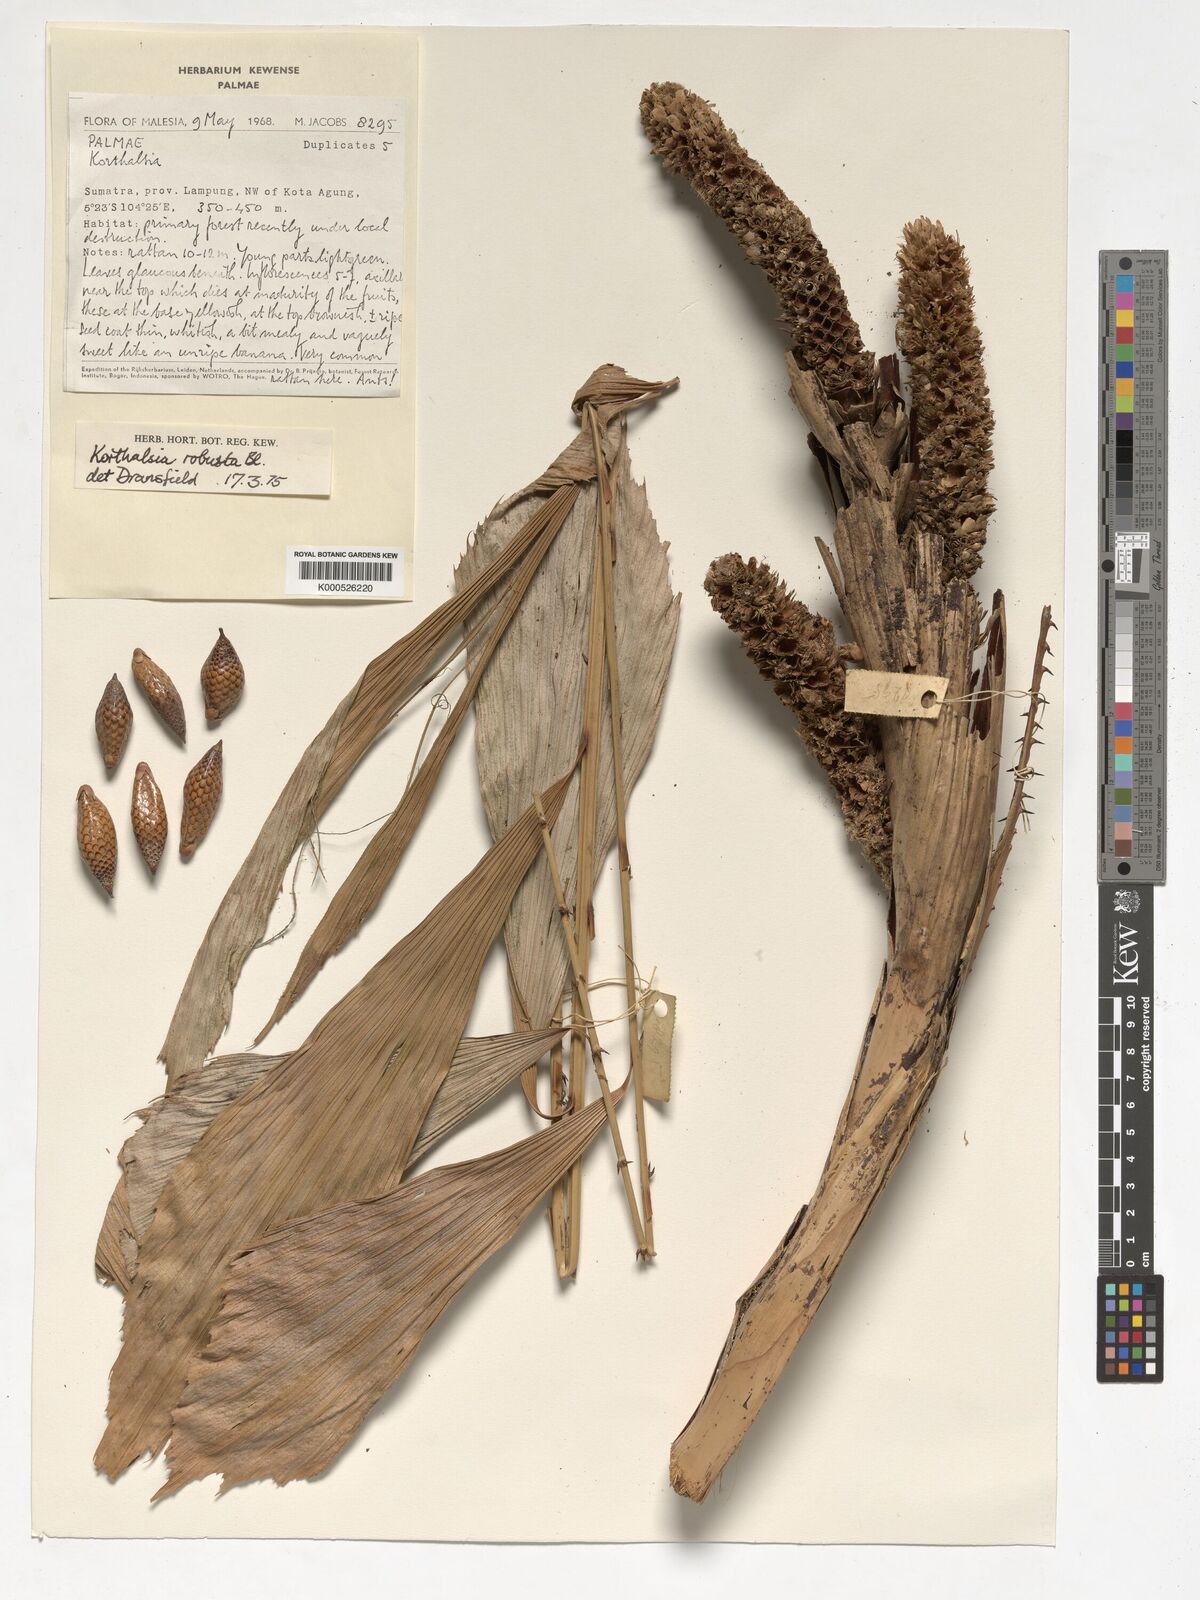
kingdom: Plantae
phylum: Tracheophyta
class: Liliopsida
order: Arecales
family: Arecaceae
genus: Korthalsia
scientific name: Korthalsia robusta
